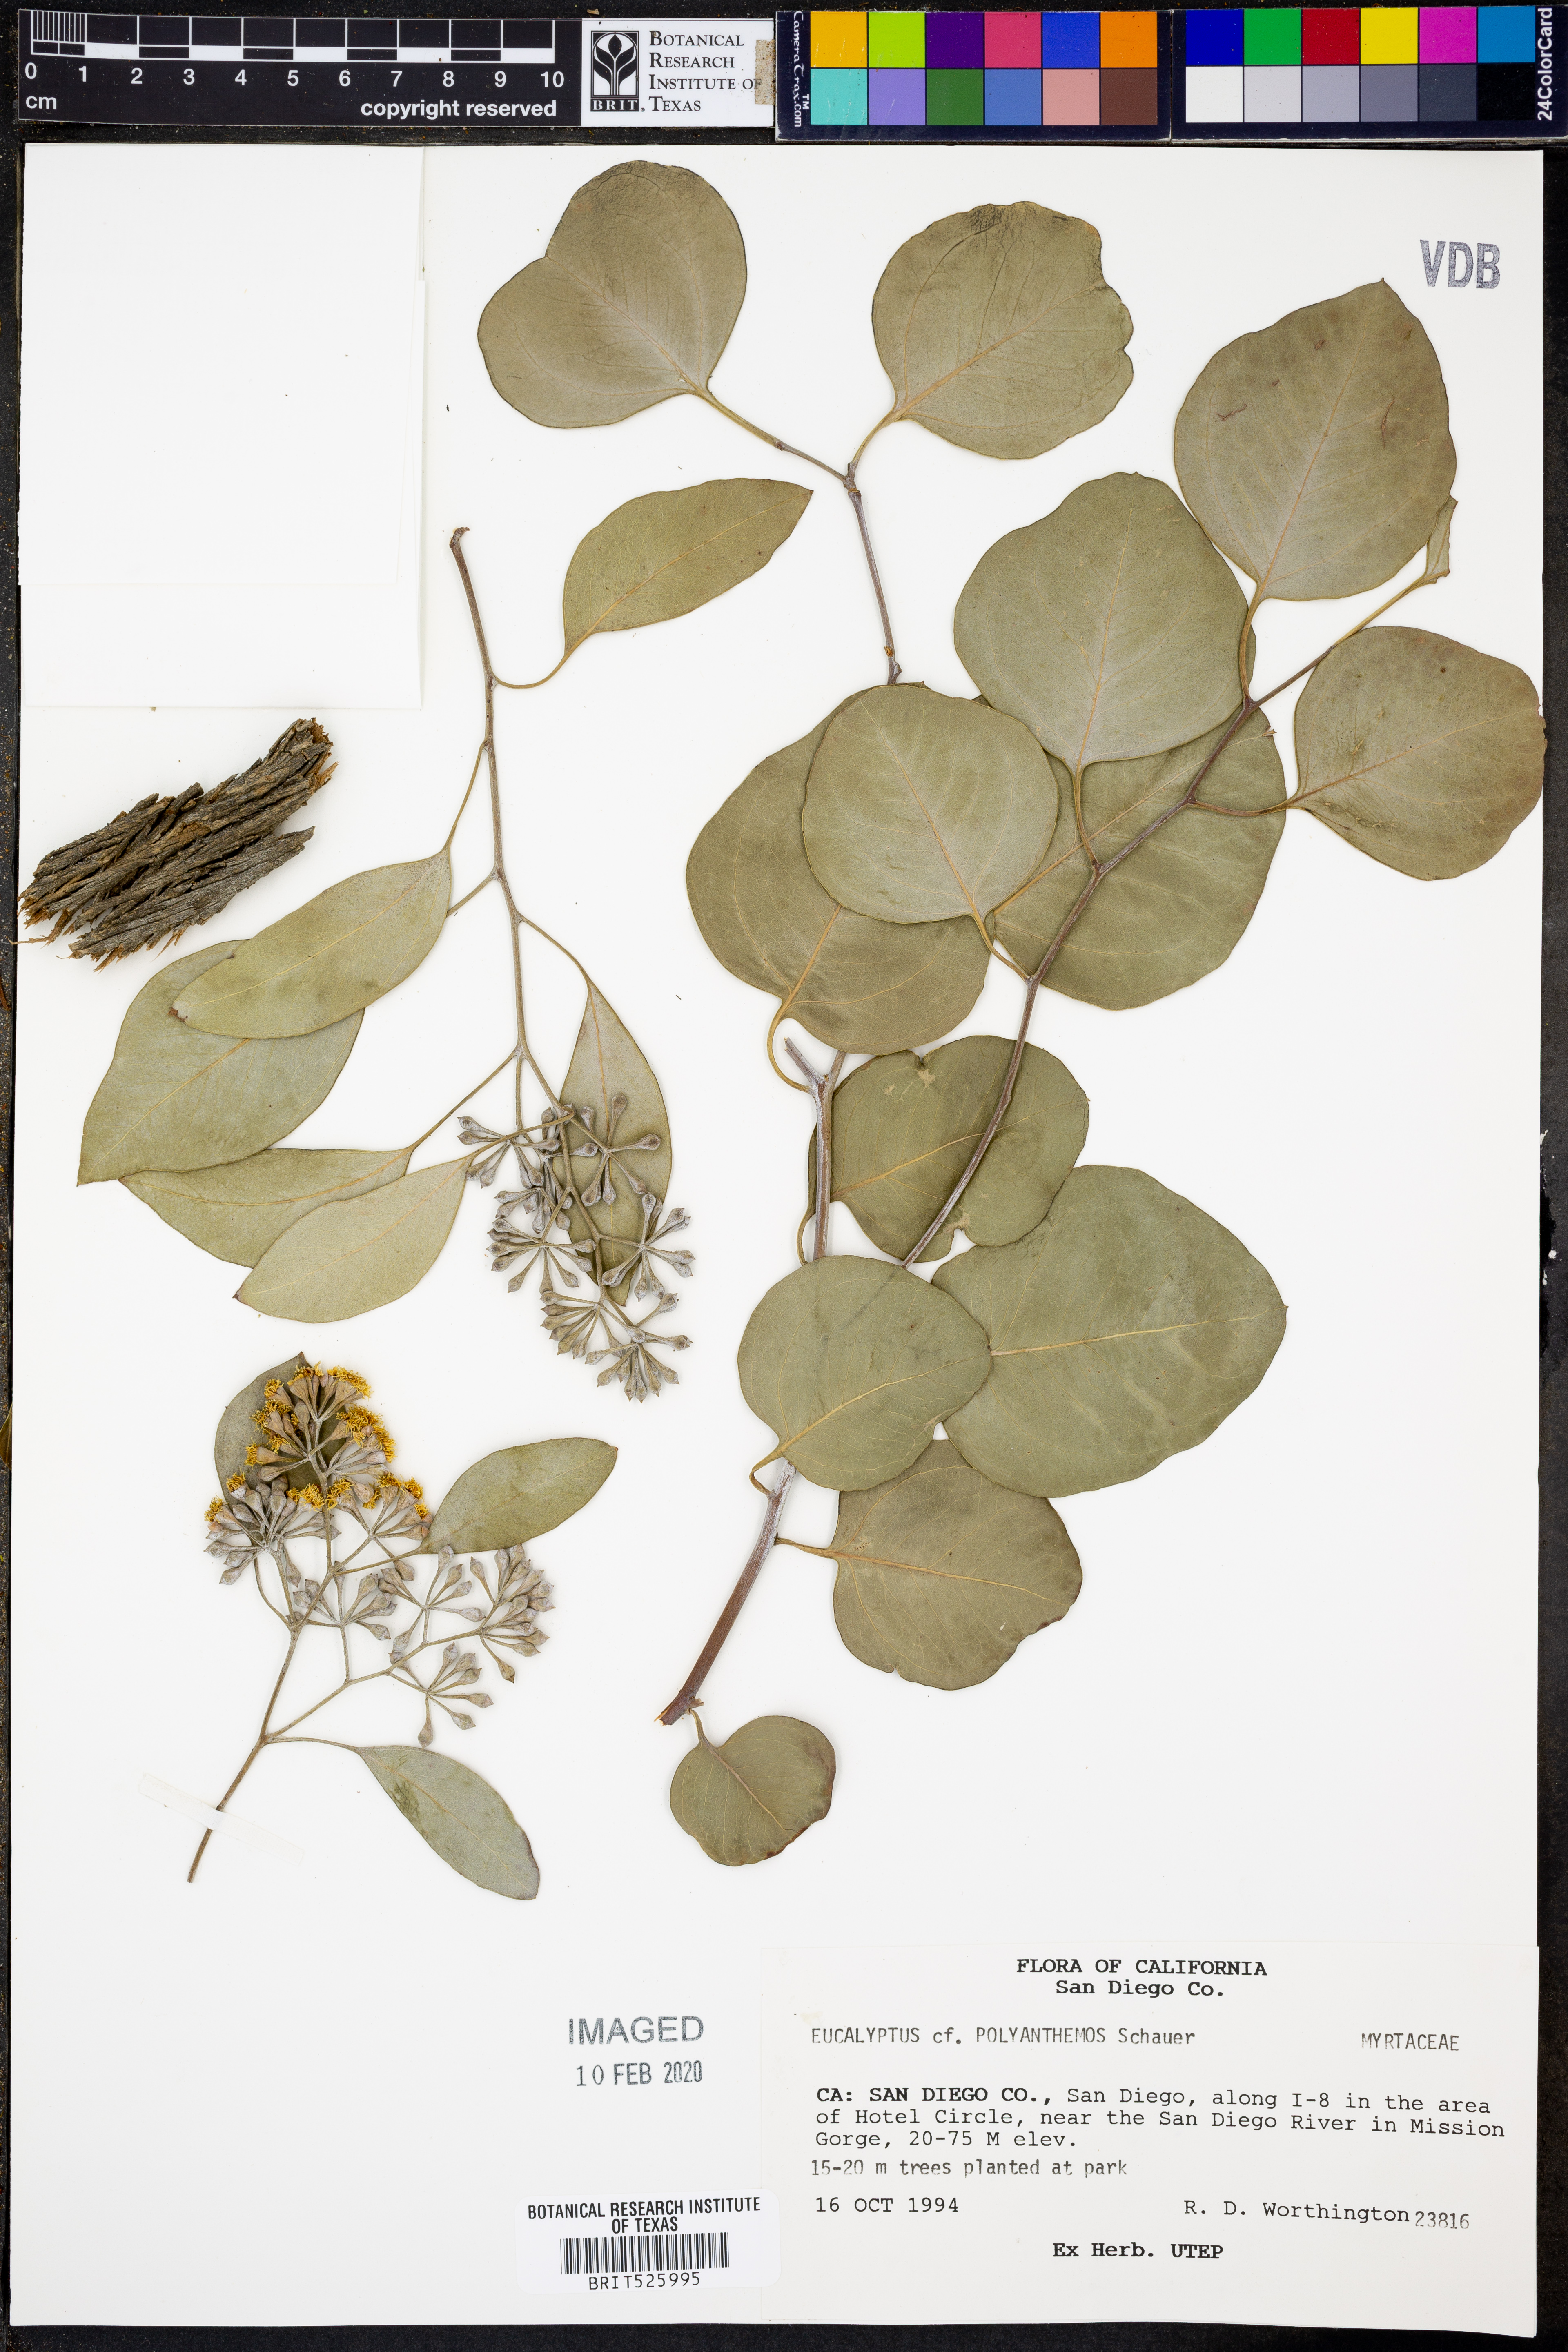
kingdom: Plantae
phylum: Tracheophyta
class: Magnoliopsida
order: Myrtales
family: Myrtaceae
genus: Eucalyptus
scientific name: Eucalyptus
